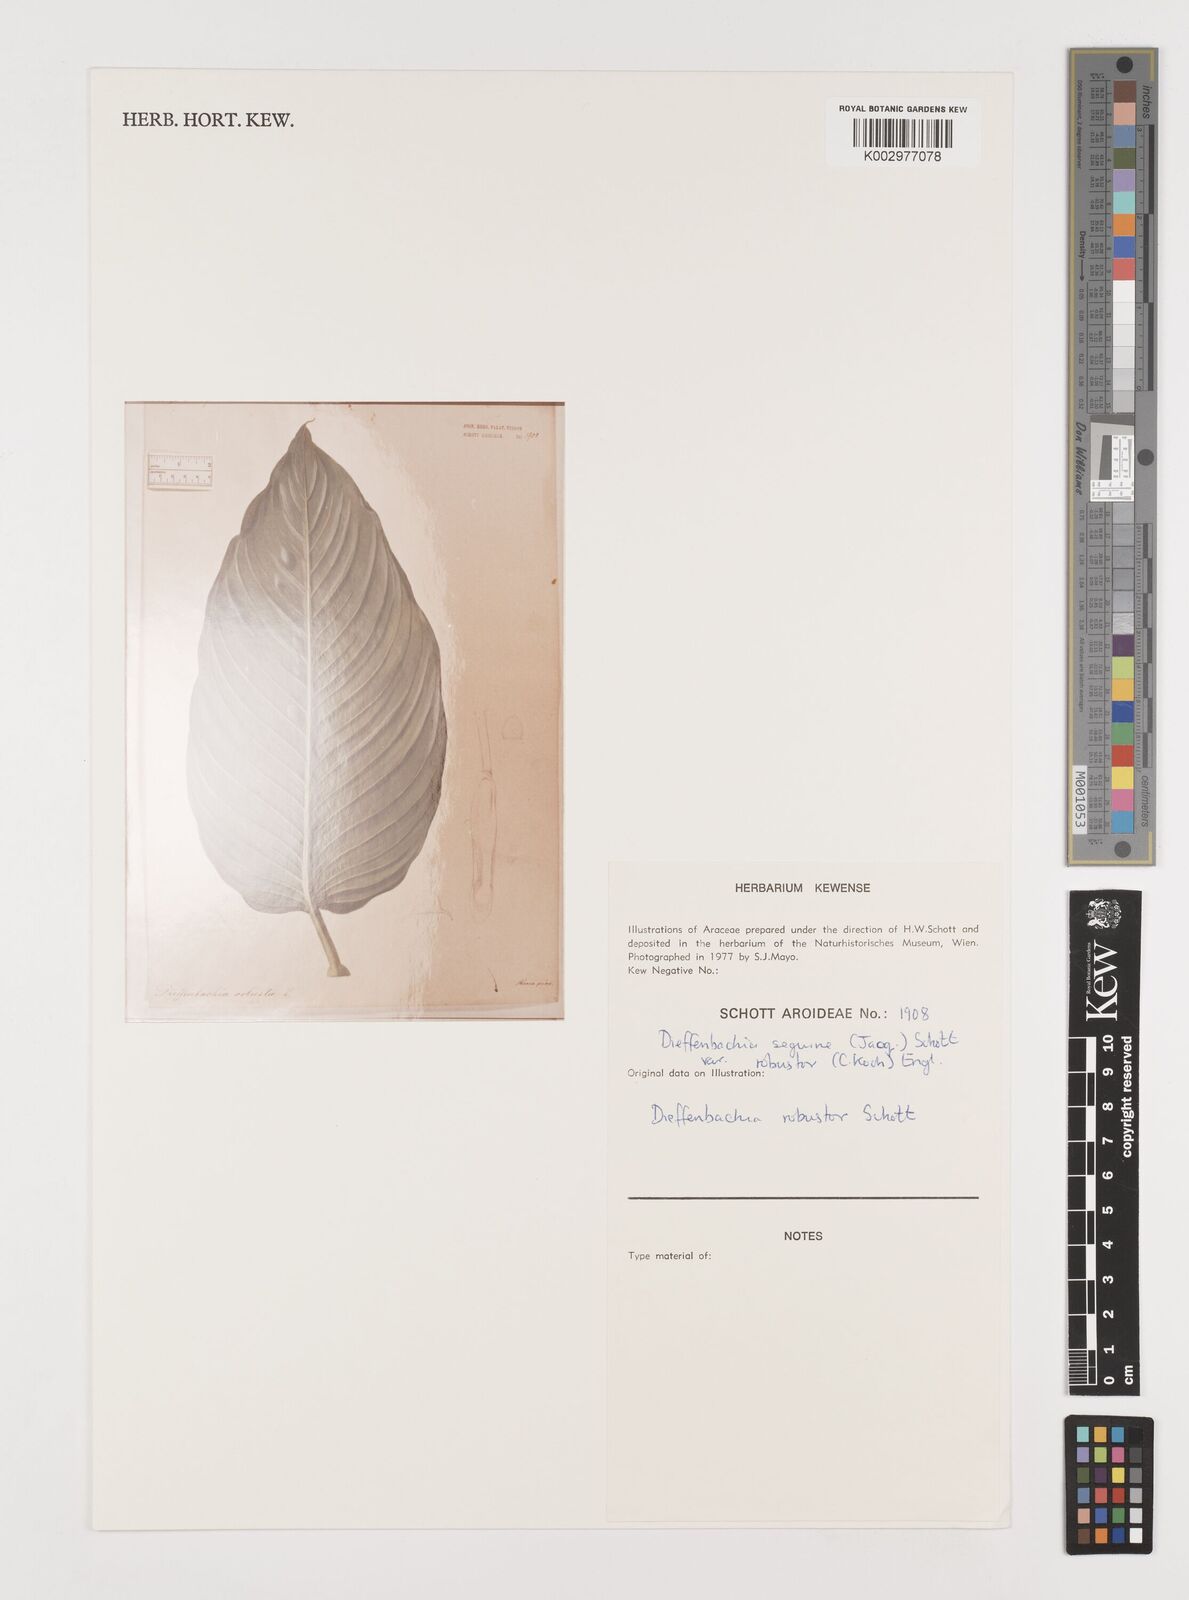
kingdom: Plantae
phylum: Tracheophyta
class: Liliopsida
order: Alismatales
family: Araceae
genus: Dieffenbachia
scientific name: Dieffenbachia seguine
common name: Dumbcane
